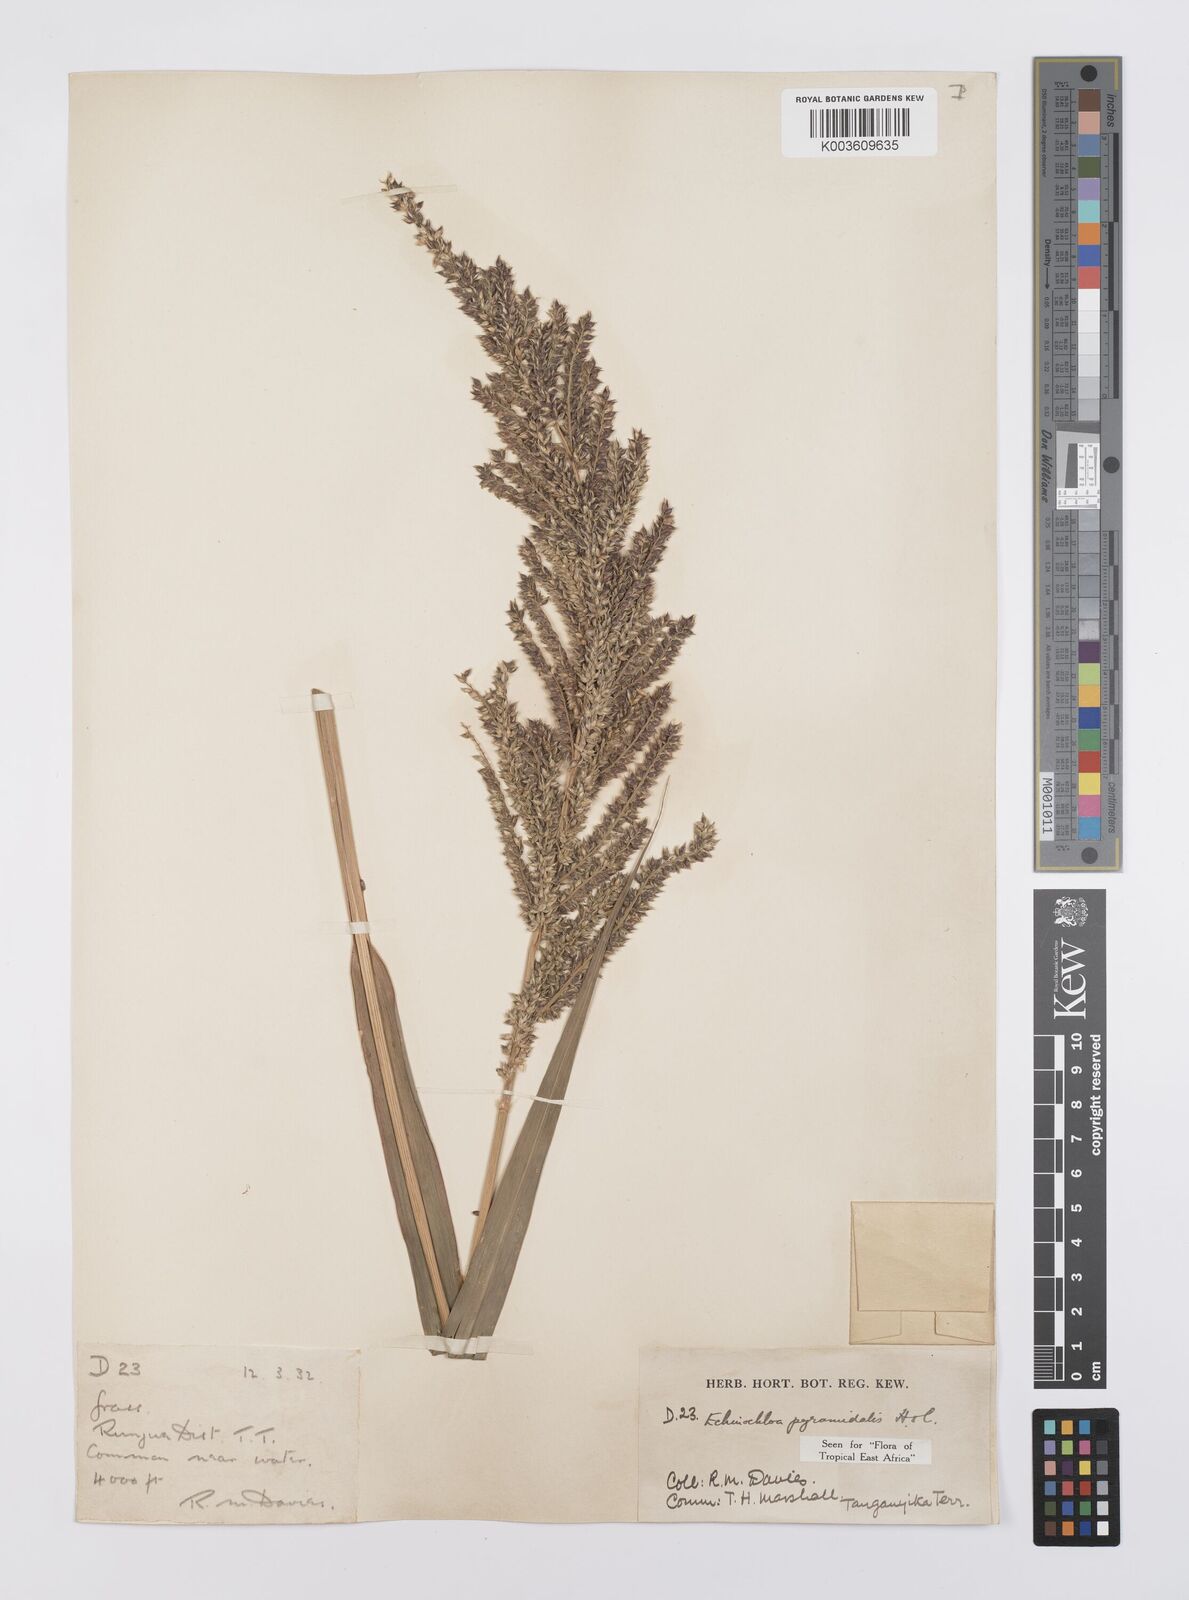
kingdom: Plantae
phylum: Tracheophyta
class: Liliopsida
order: Poales
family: Poaceae
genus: Echinochloa
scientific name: Echinochloa pyramidalis
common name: Antelope grass
